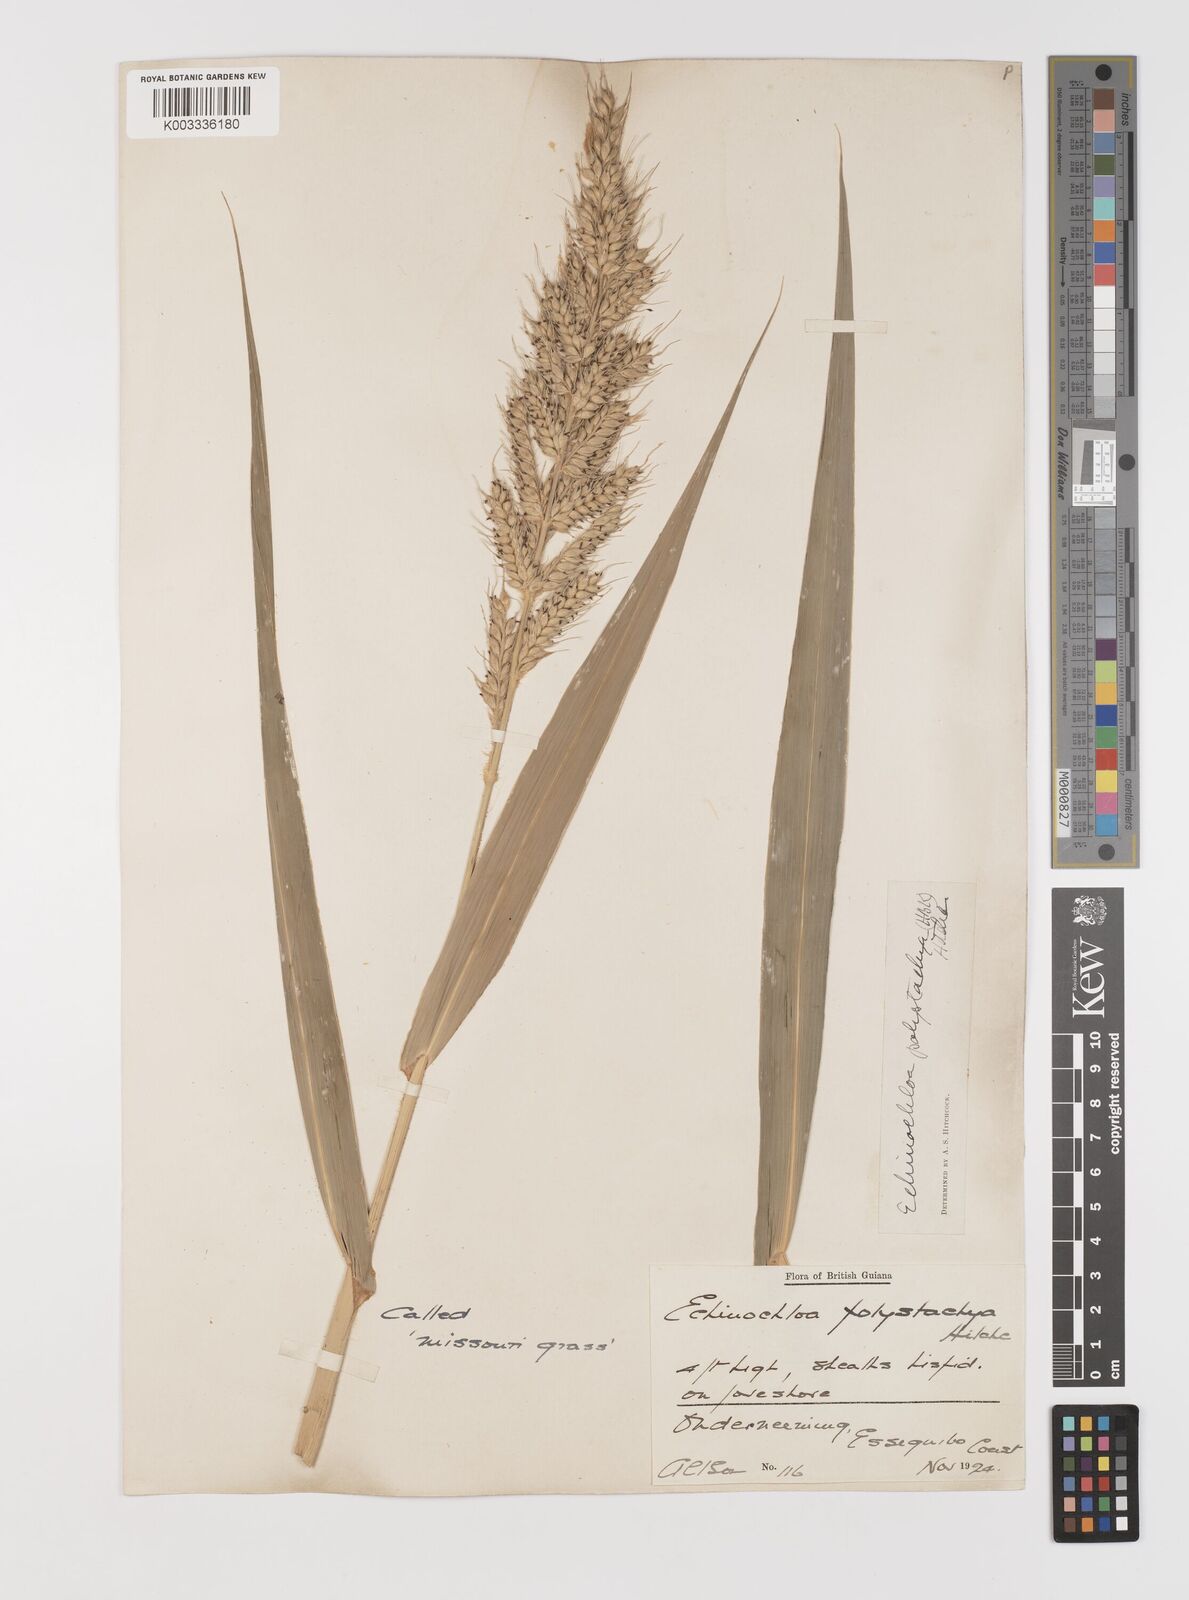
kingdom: Plantae
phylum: Tracheophyta
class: Liliopsida
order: Poales
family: Poaceae
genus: Pseudechinolaena
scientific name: Pseudechinolaena polystachya
